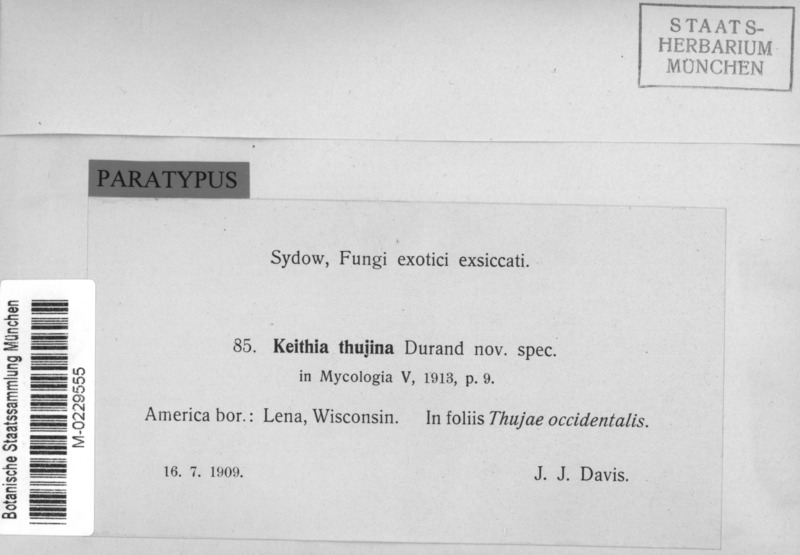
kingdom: Fungi
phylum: Ascomycota
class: Leotiomycetes
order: Helotiales
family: Hemiphacidiaceae
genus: Didymascella
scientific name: Didymascella thujina
